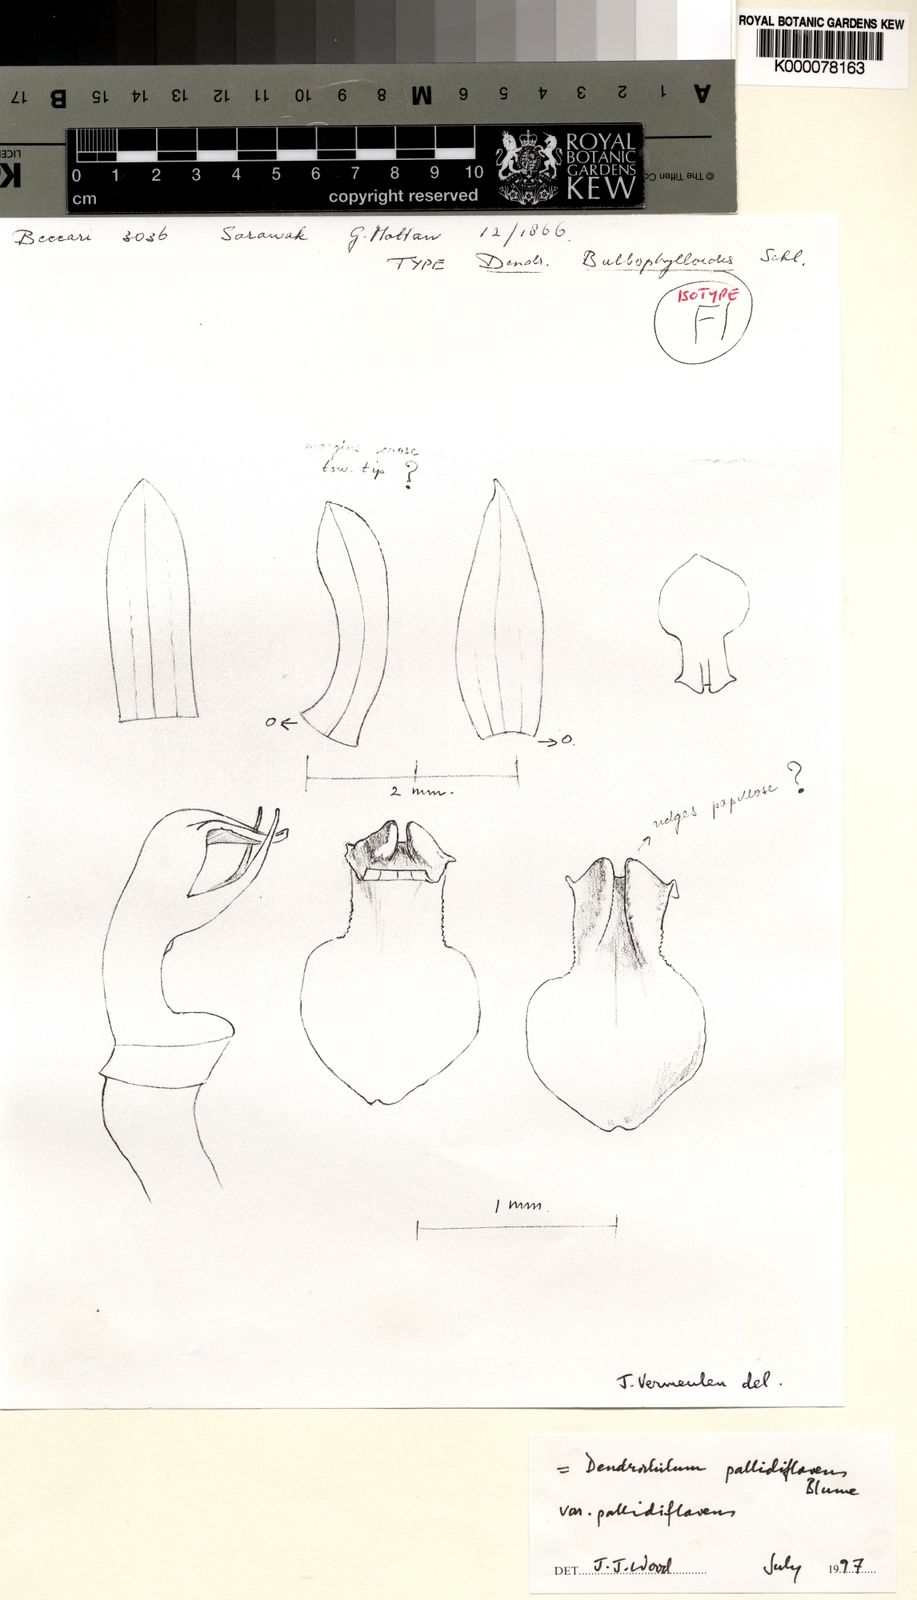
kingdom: Plantae
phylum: Tracheophyta
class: Liliopsida
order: Asparagales
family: Orchidaceae
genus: Coelogyne
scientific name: Coelogyne pallidiflavens
